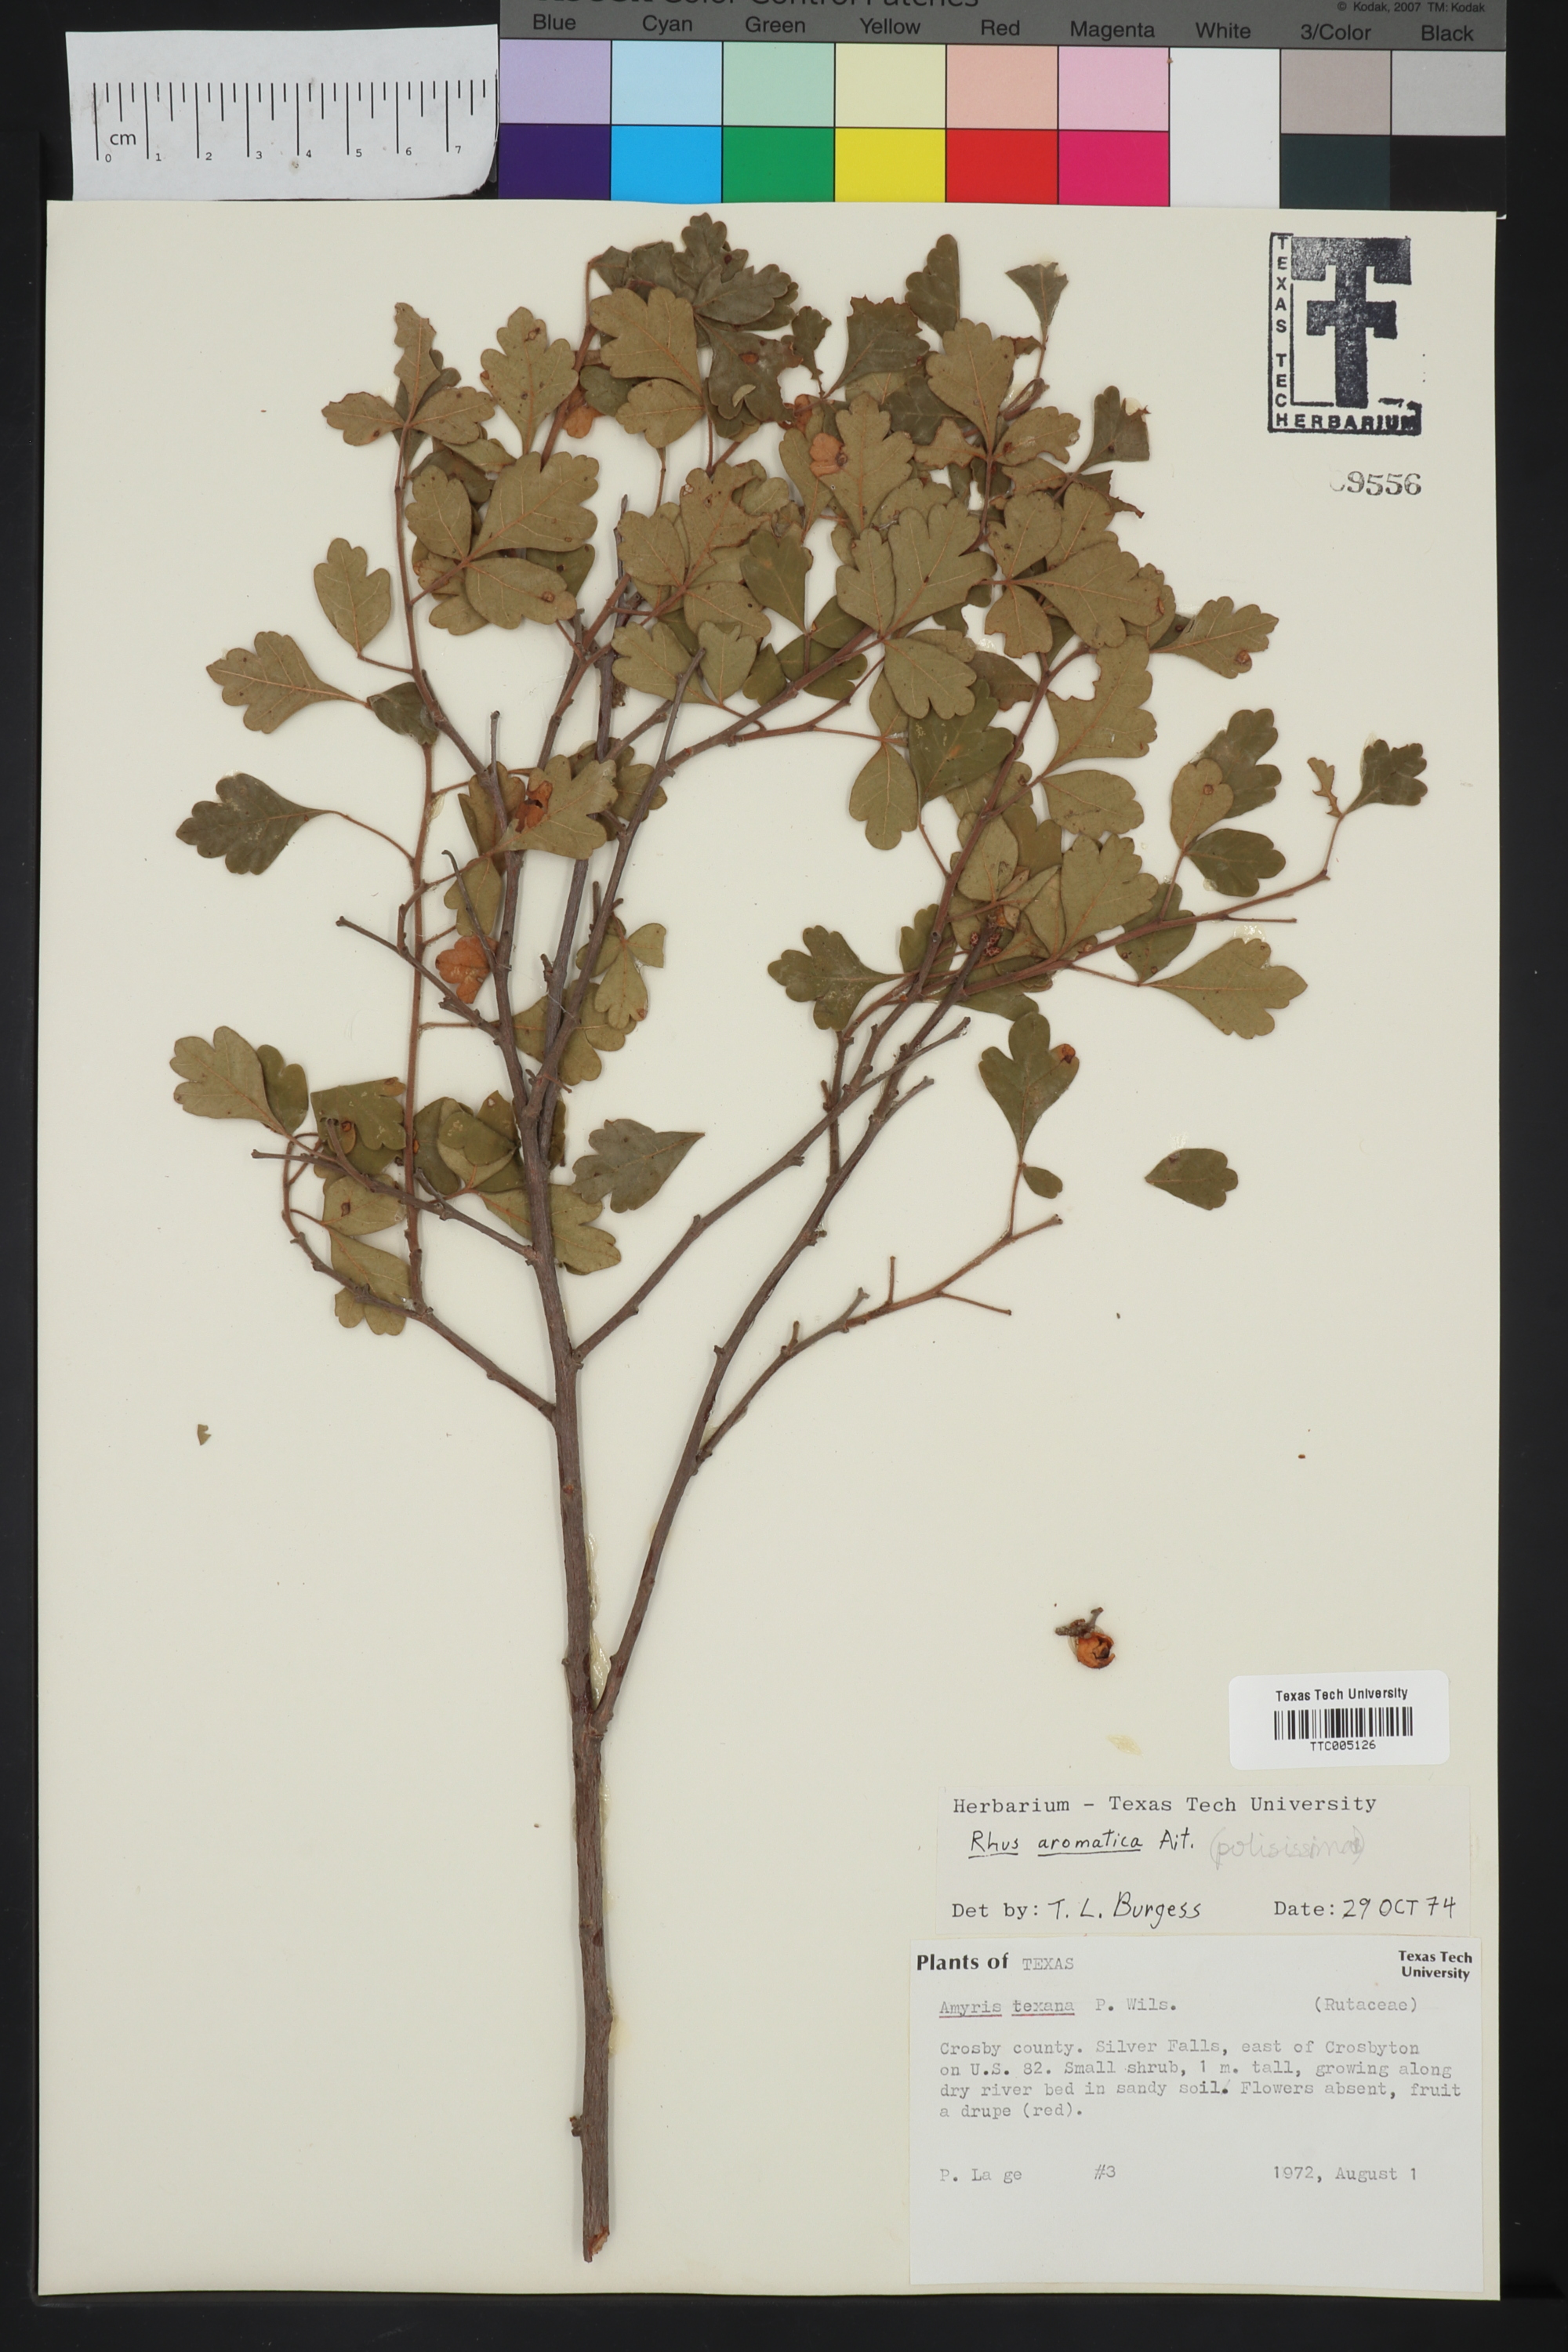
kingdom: Plantae
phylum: Tracheophyta
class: Magnoliopsida
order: Sapindales
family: Anacardiaceae
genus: Rhus
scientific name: Rhus aromatica
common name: Aromatic sumac
